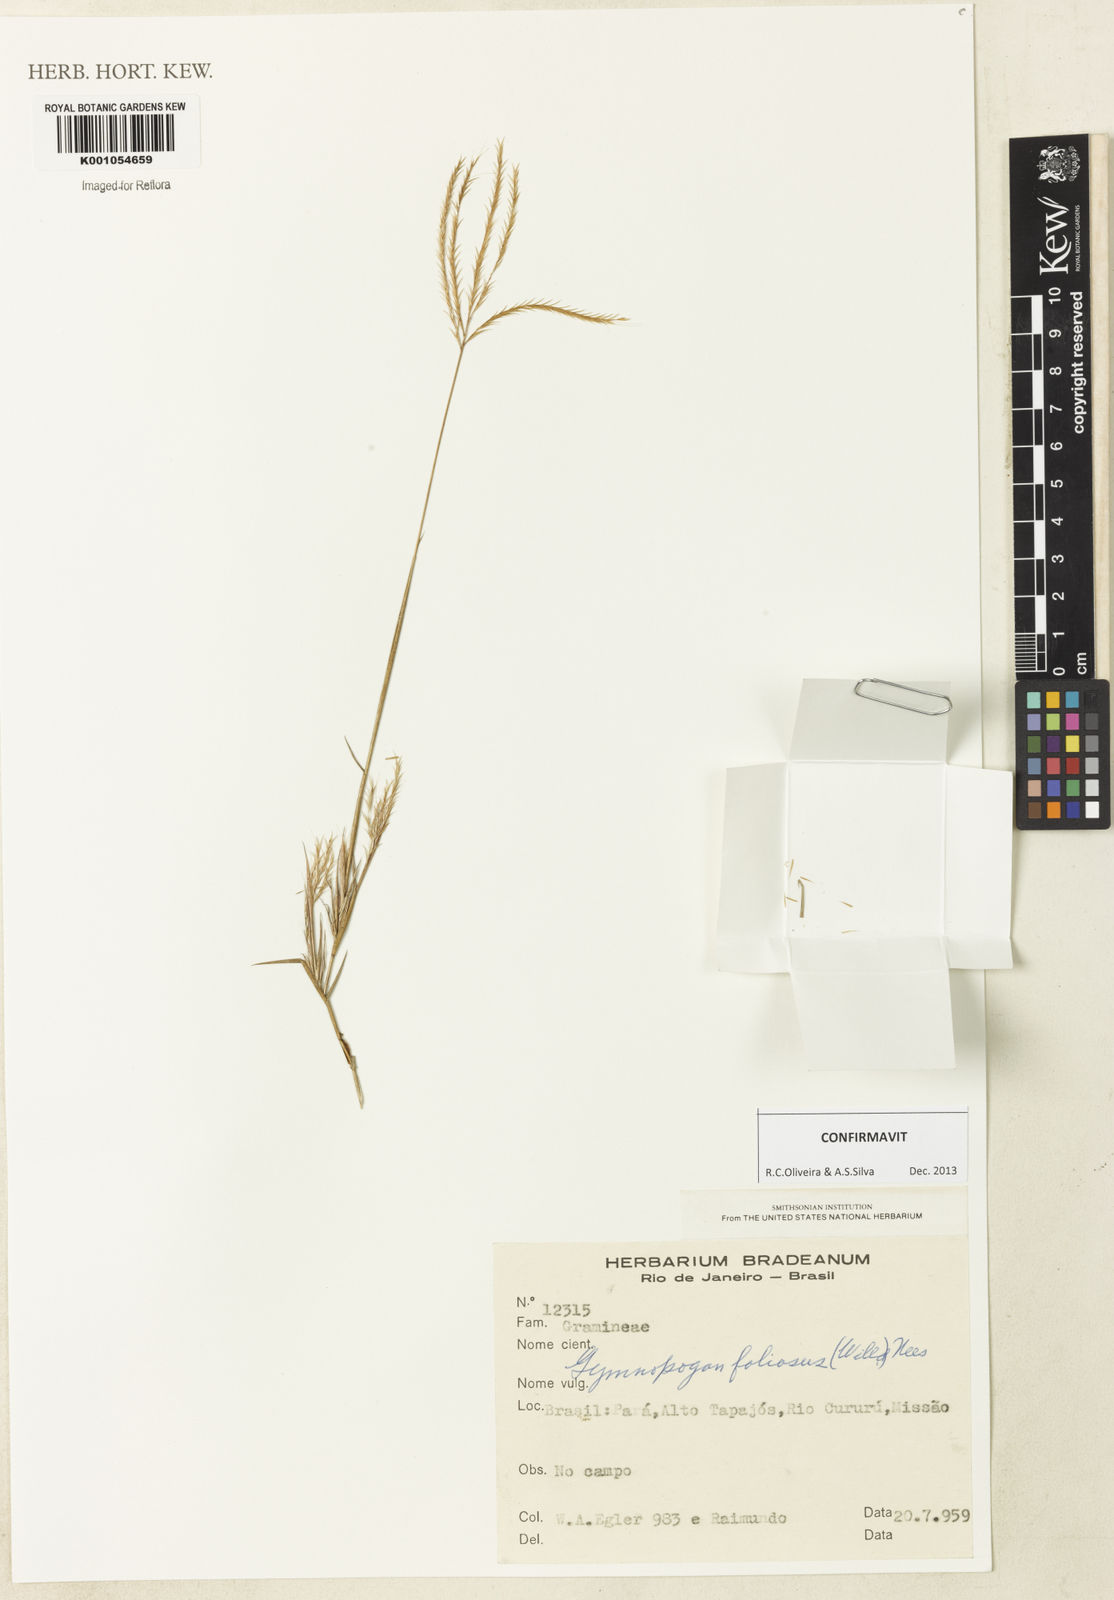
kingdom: Plantae
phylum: Tracheophyta
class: Liliopsida
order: Poales
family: Poaceae
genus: Gymnopogon
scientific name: Gymnopogon foliosus
